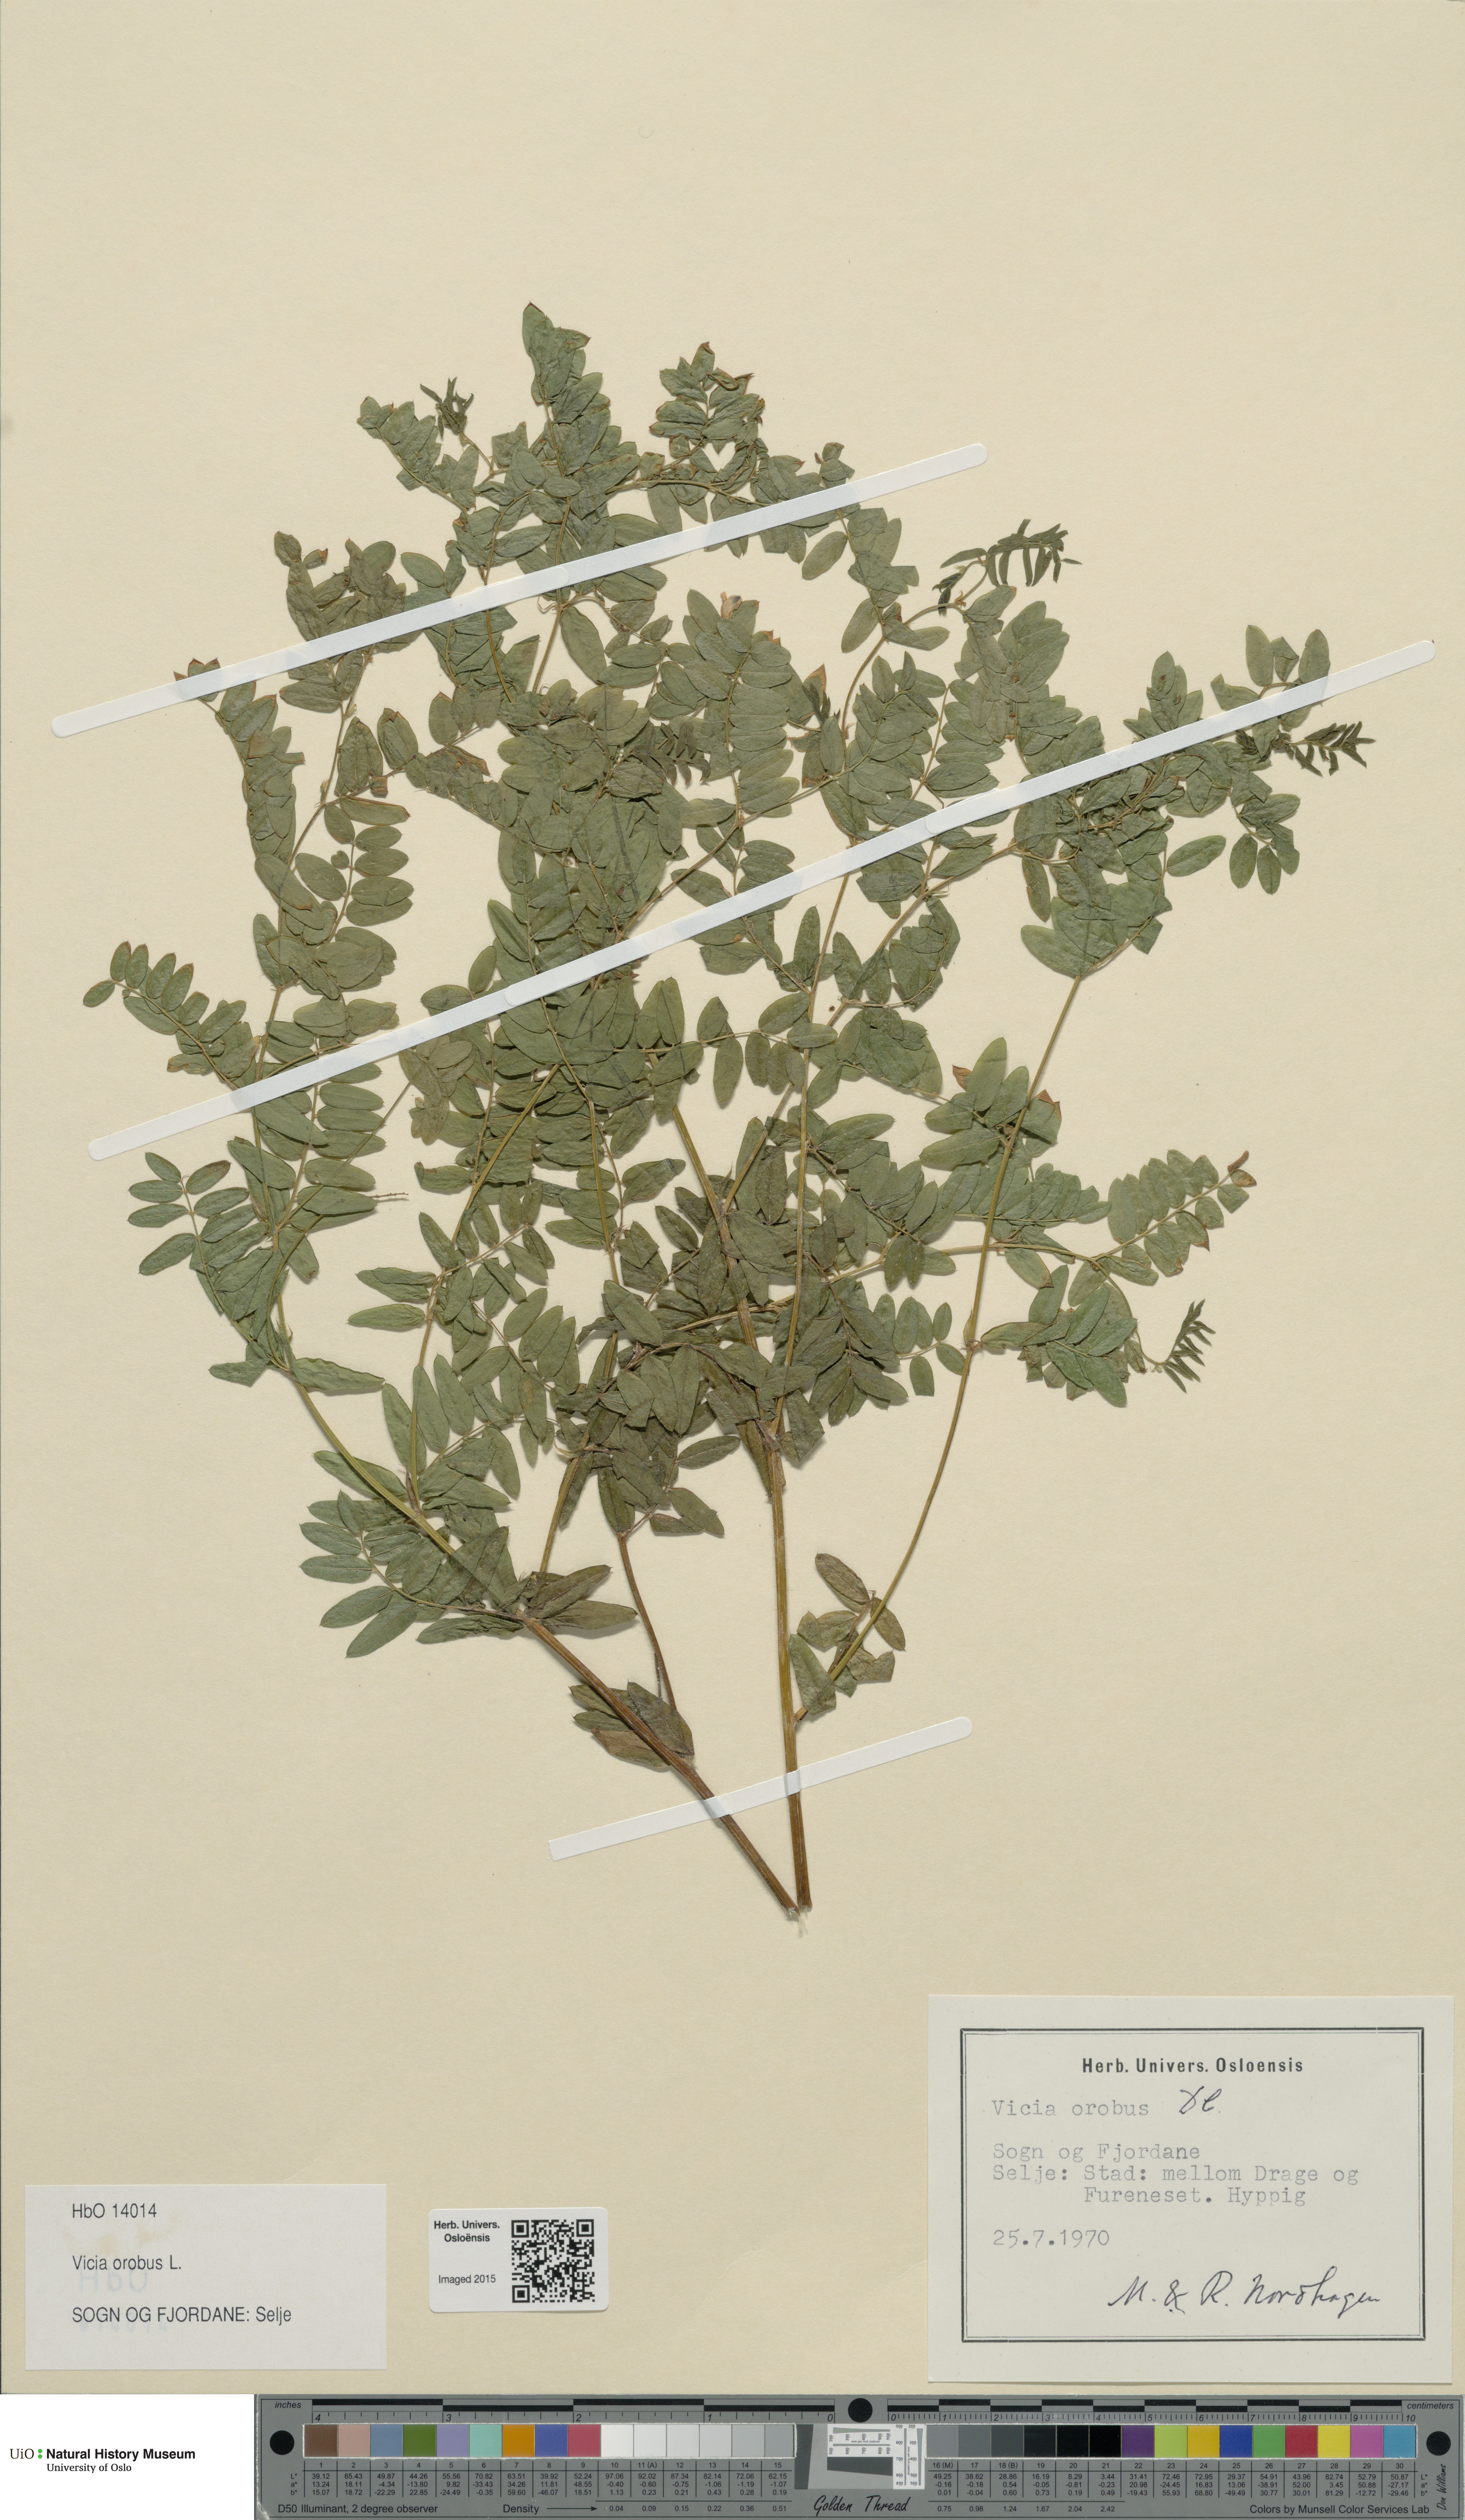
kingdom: Plantae
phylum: Tracheophyta
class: Magnoliopsida
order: Fabales
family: Fabaceae
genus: Vicia
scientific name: Vicia orobus
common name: Wood bitter-vetch
